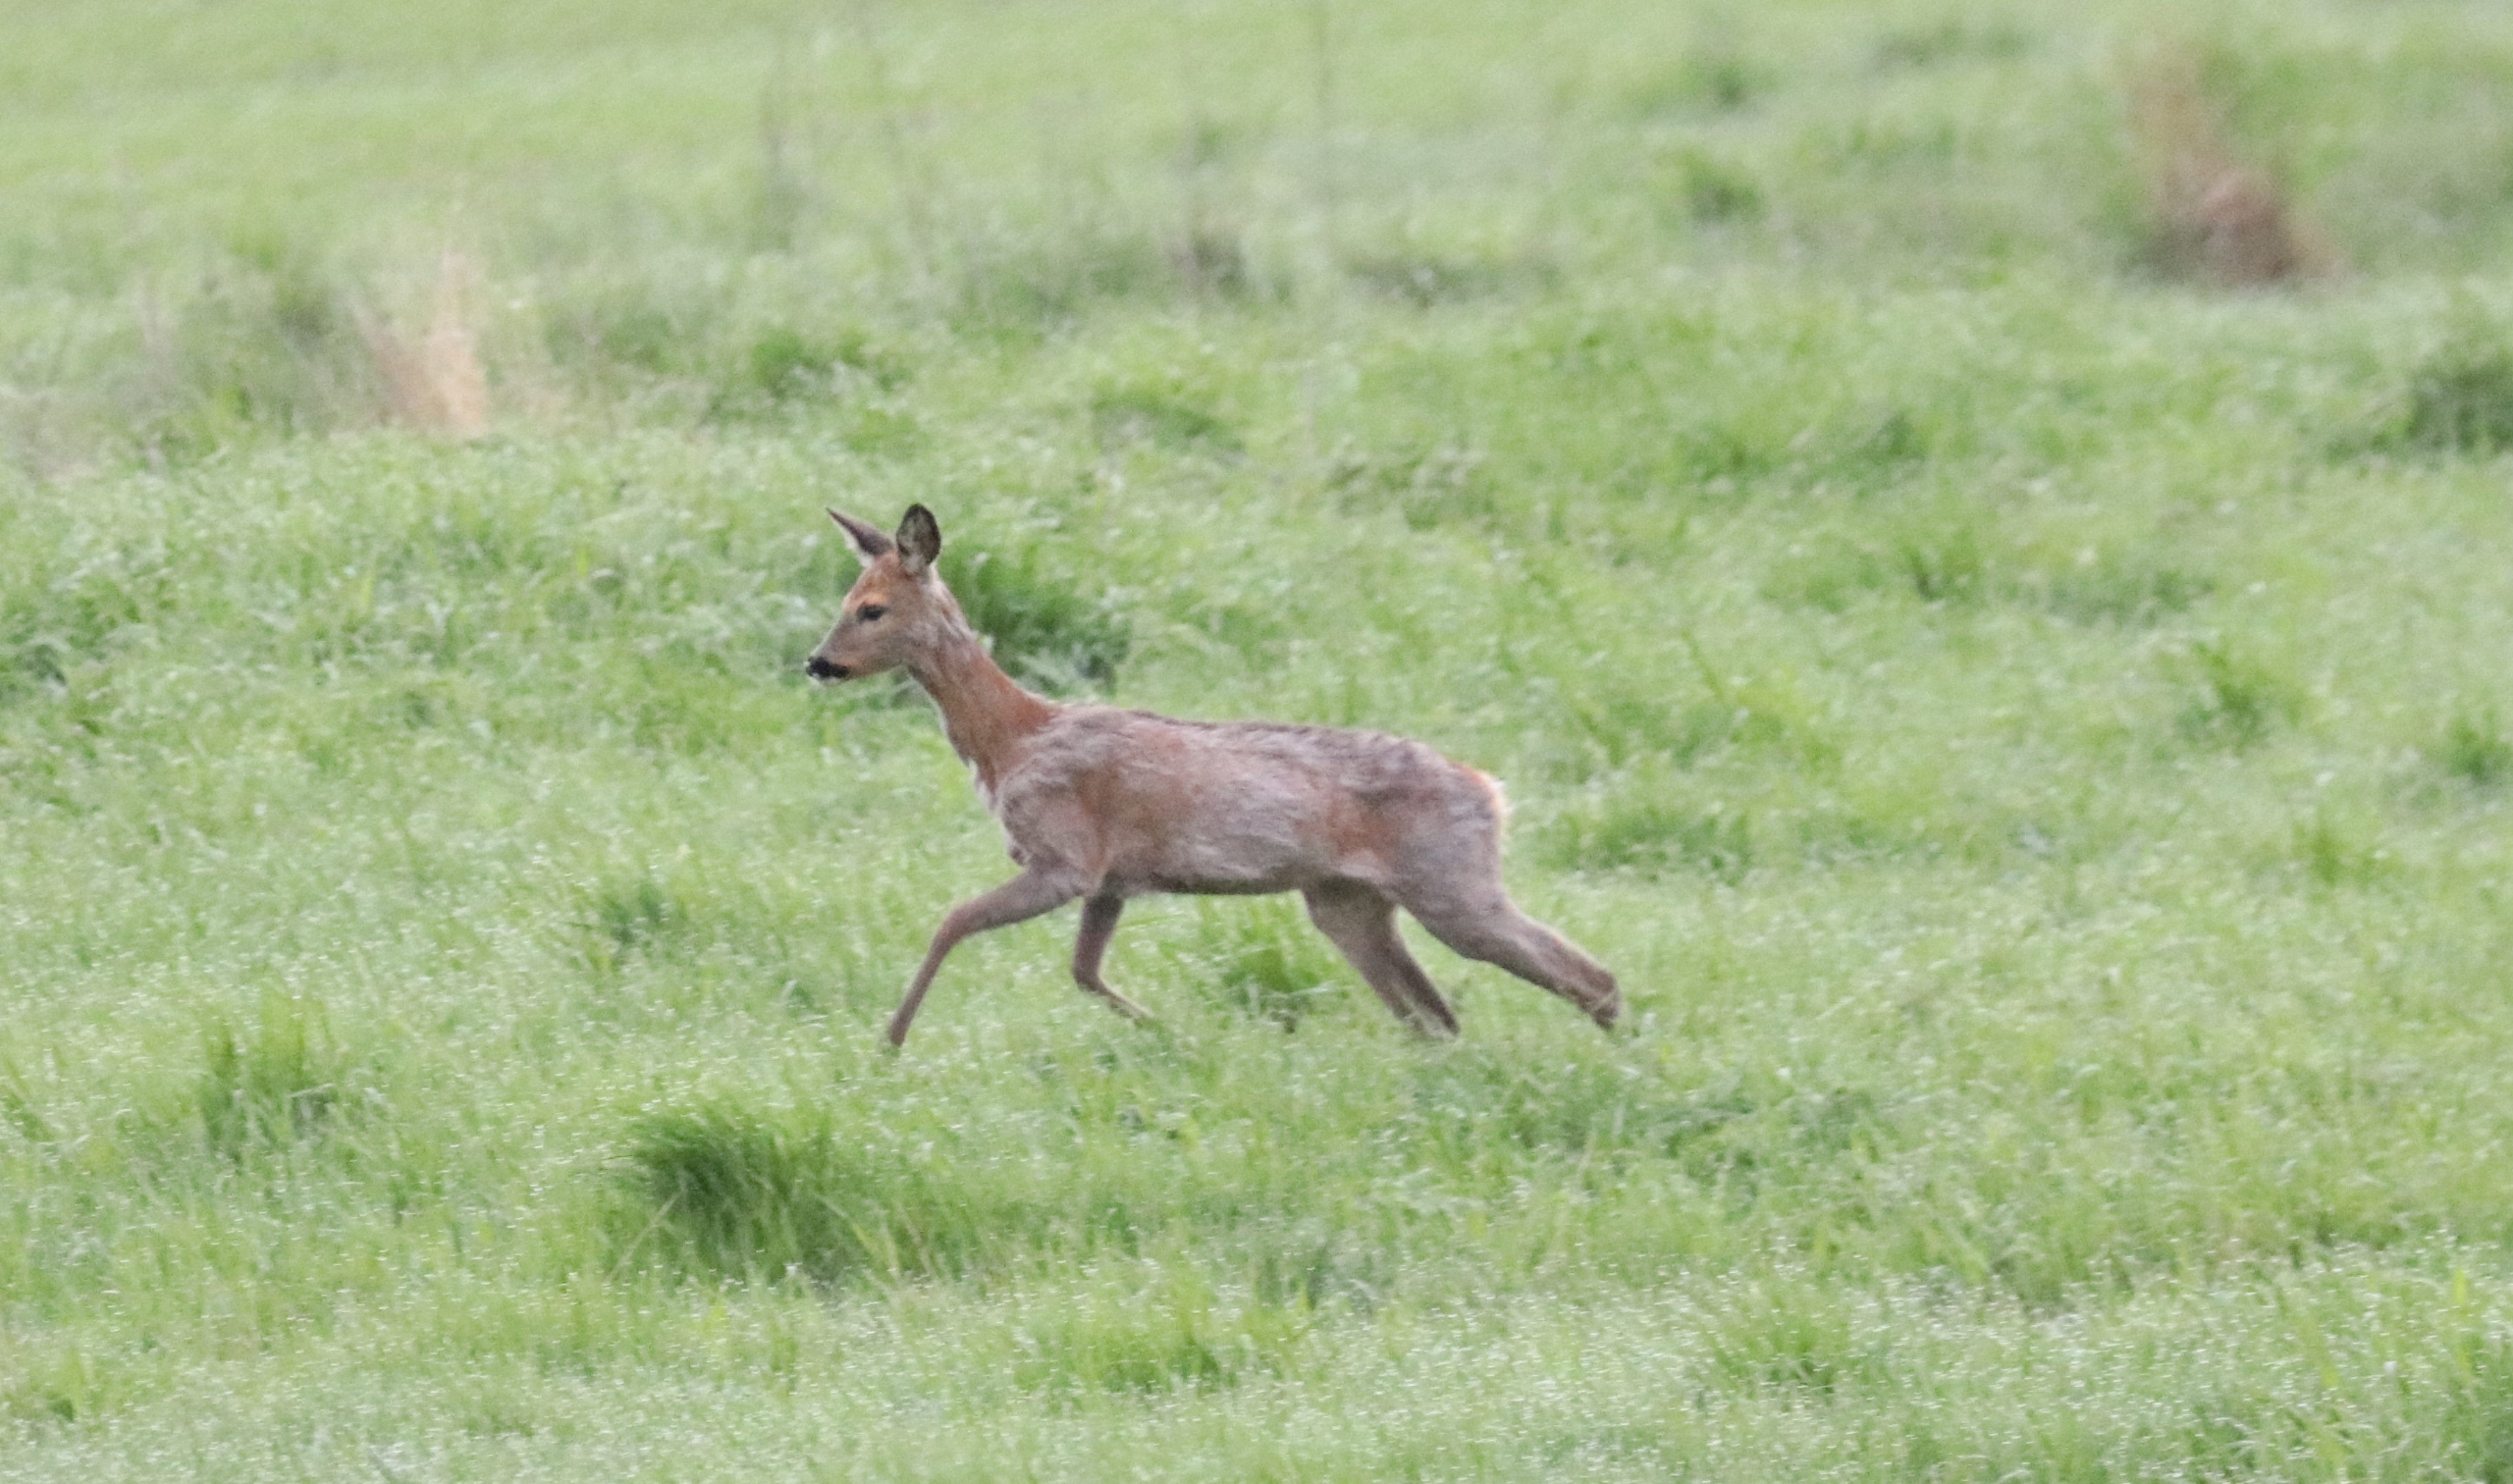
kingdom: Animalia
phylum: Chordata
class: Mammalia
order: Artiodactyla
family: Cervidae
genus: Capreolus
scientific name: Capreolus capreolus
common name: Rådyr
